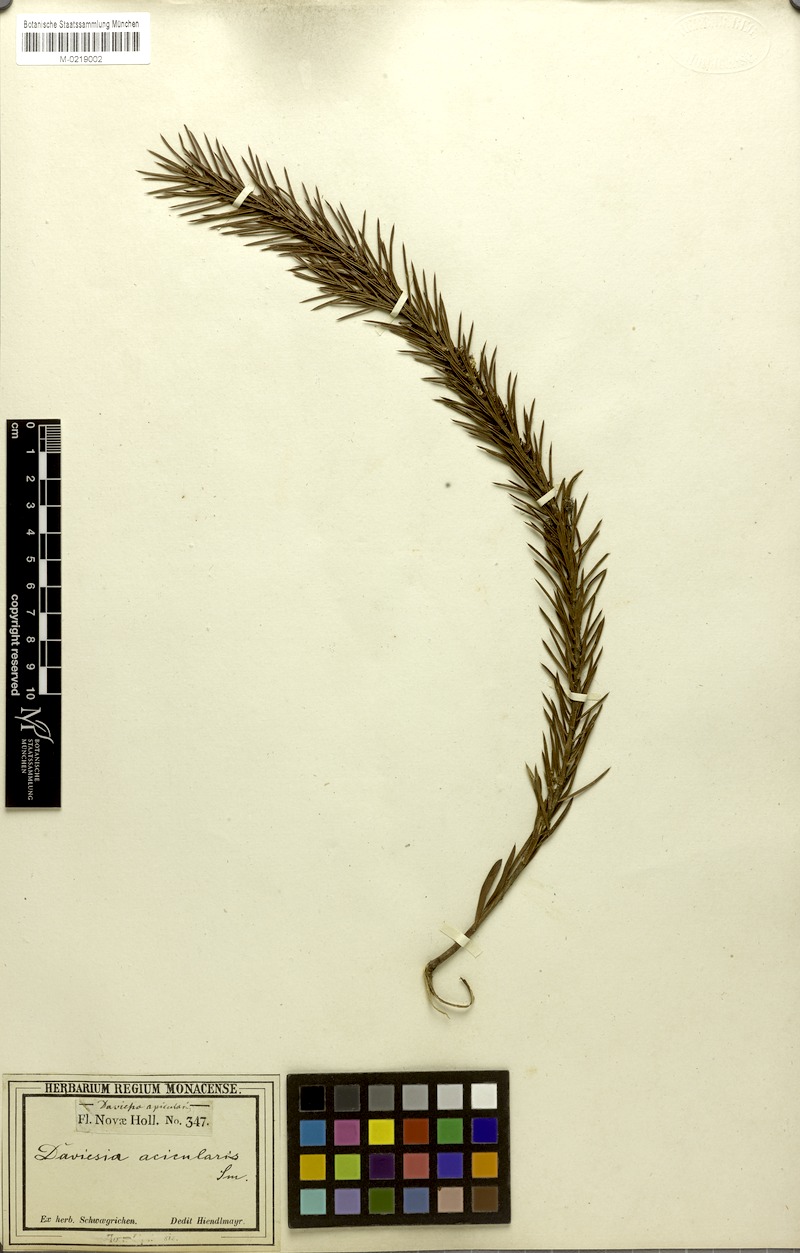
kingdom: Plantae
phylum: Tracheophyta
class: Magnoliopsida
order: Fabales
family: Fabaceae
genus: Daviesia
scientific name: Daviesia acicularis
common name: Sandplain bitter-pea
